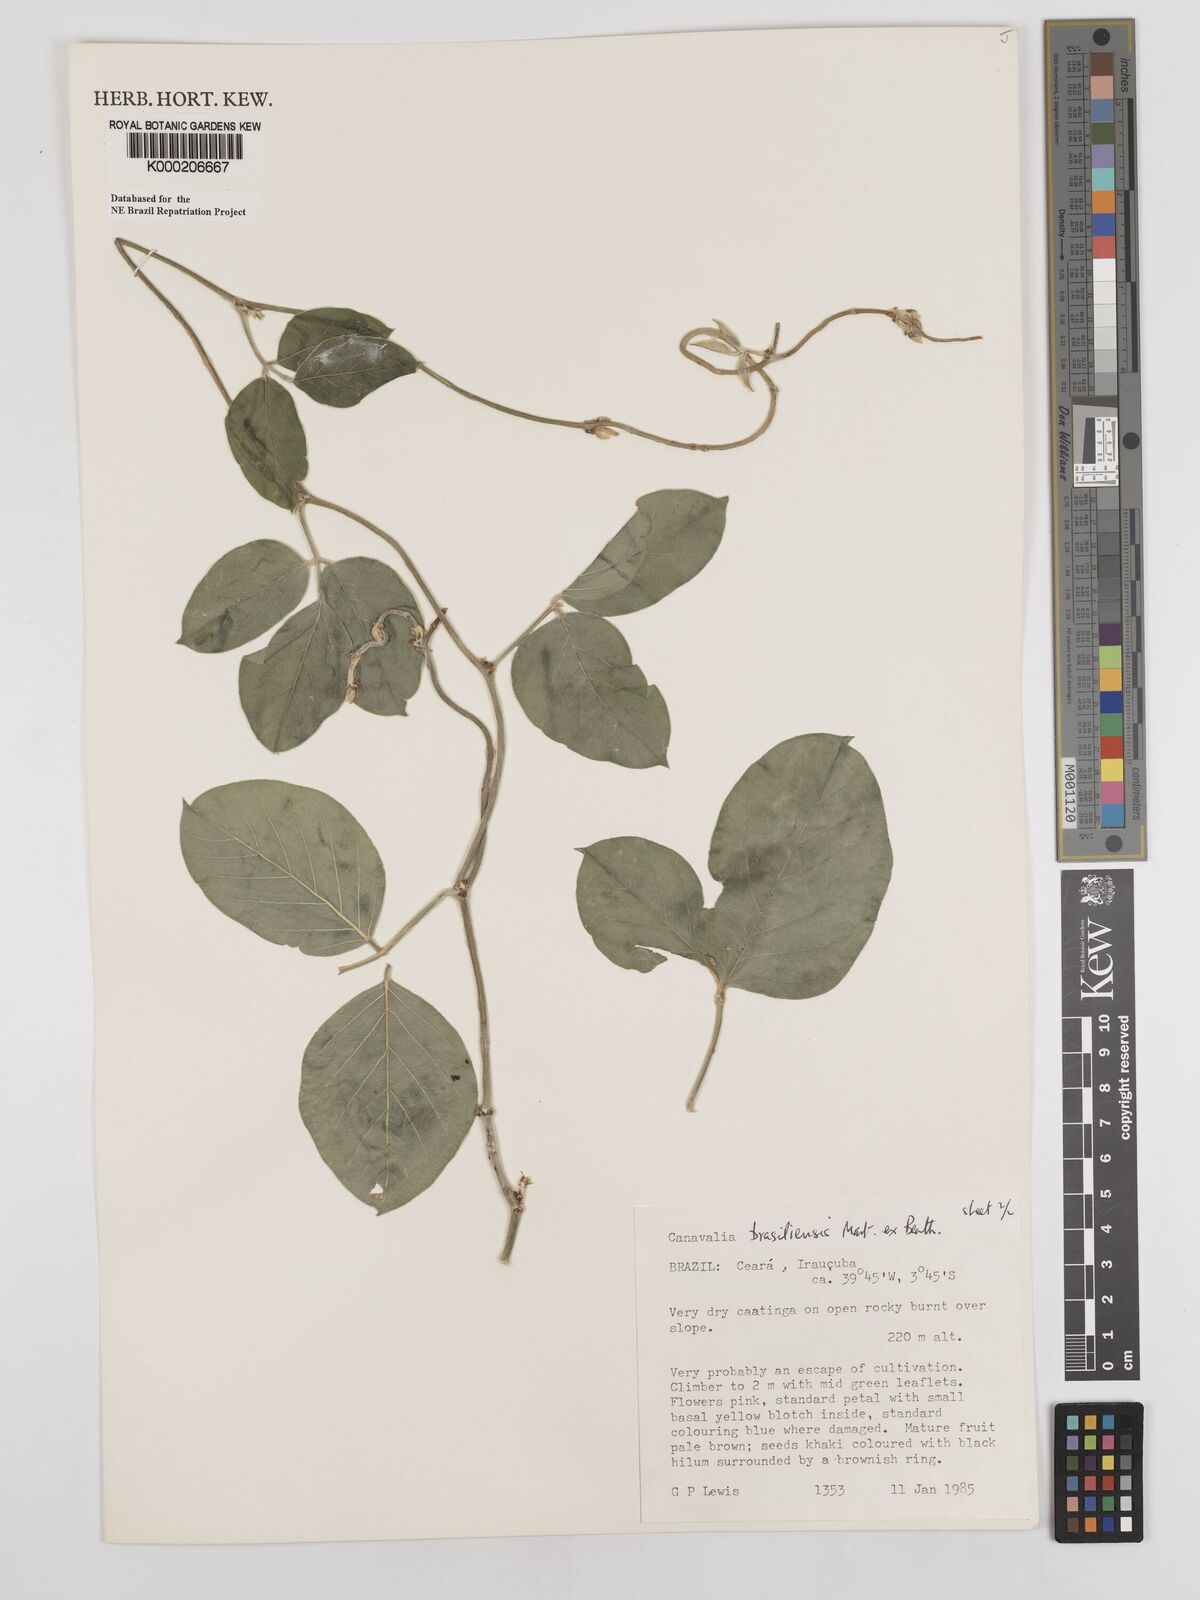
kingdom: Plantae
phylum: Tracheophyta
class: Magnoliopsida
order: Fabales
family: Fabaceae
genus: Canavalia
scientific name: Canavalia brasiliensis
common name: Barbicou-bean
